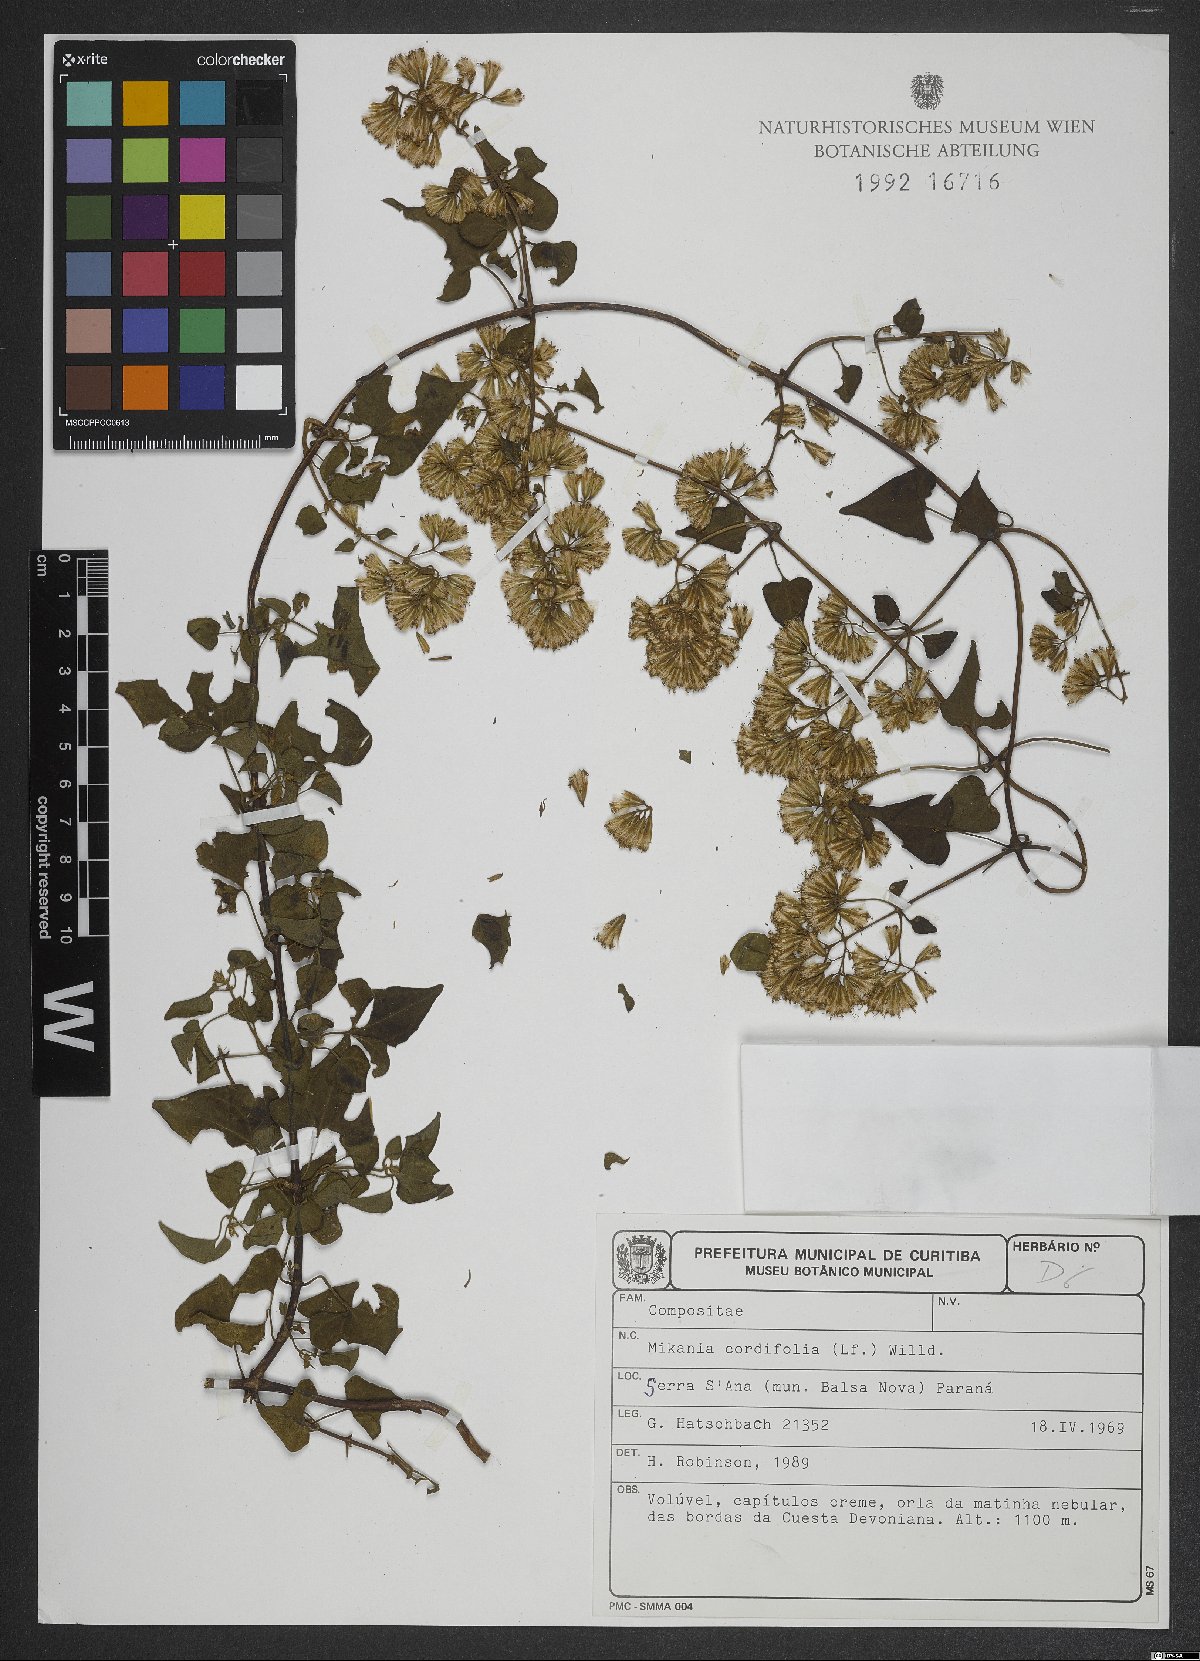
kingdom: Plantae
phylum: Tracheophyta
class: Magnoliopsida
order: Asterales
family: Asteraceae
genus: Mikania
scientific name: Mikania cordifolia
